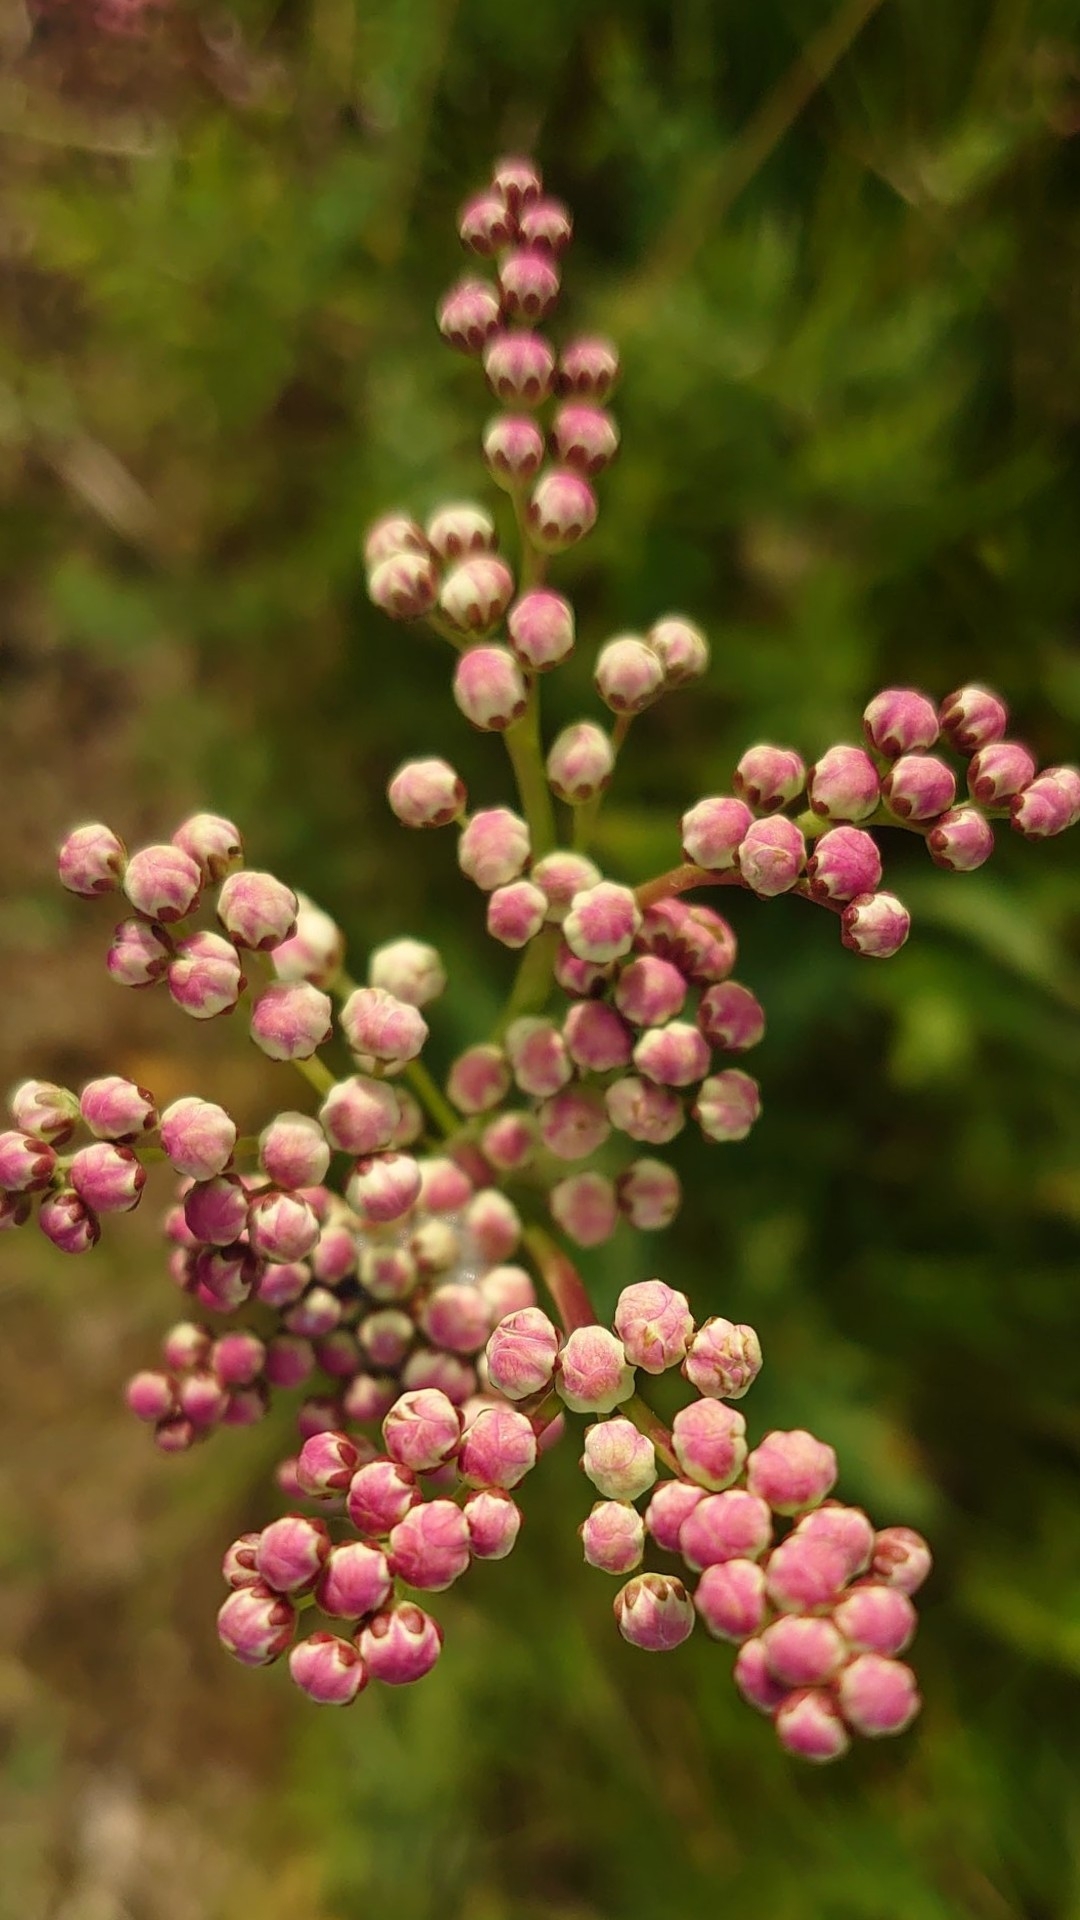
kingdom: Plantae
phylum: Tracheophyta
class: Magnoliopsida
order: Rosales
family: Rosaceae
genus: Filipendula
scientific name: Filipendula vulgaris
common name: Knoldet mjødurt
